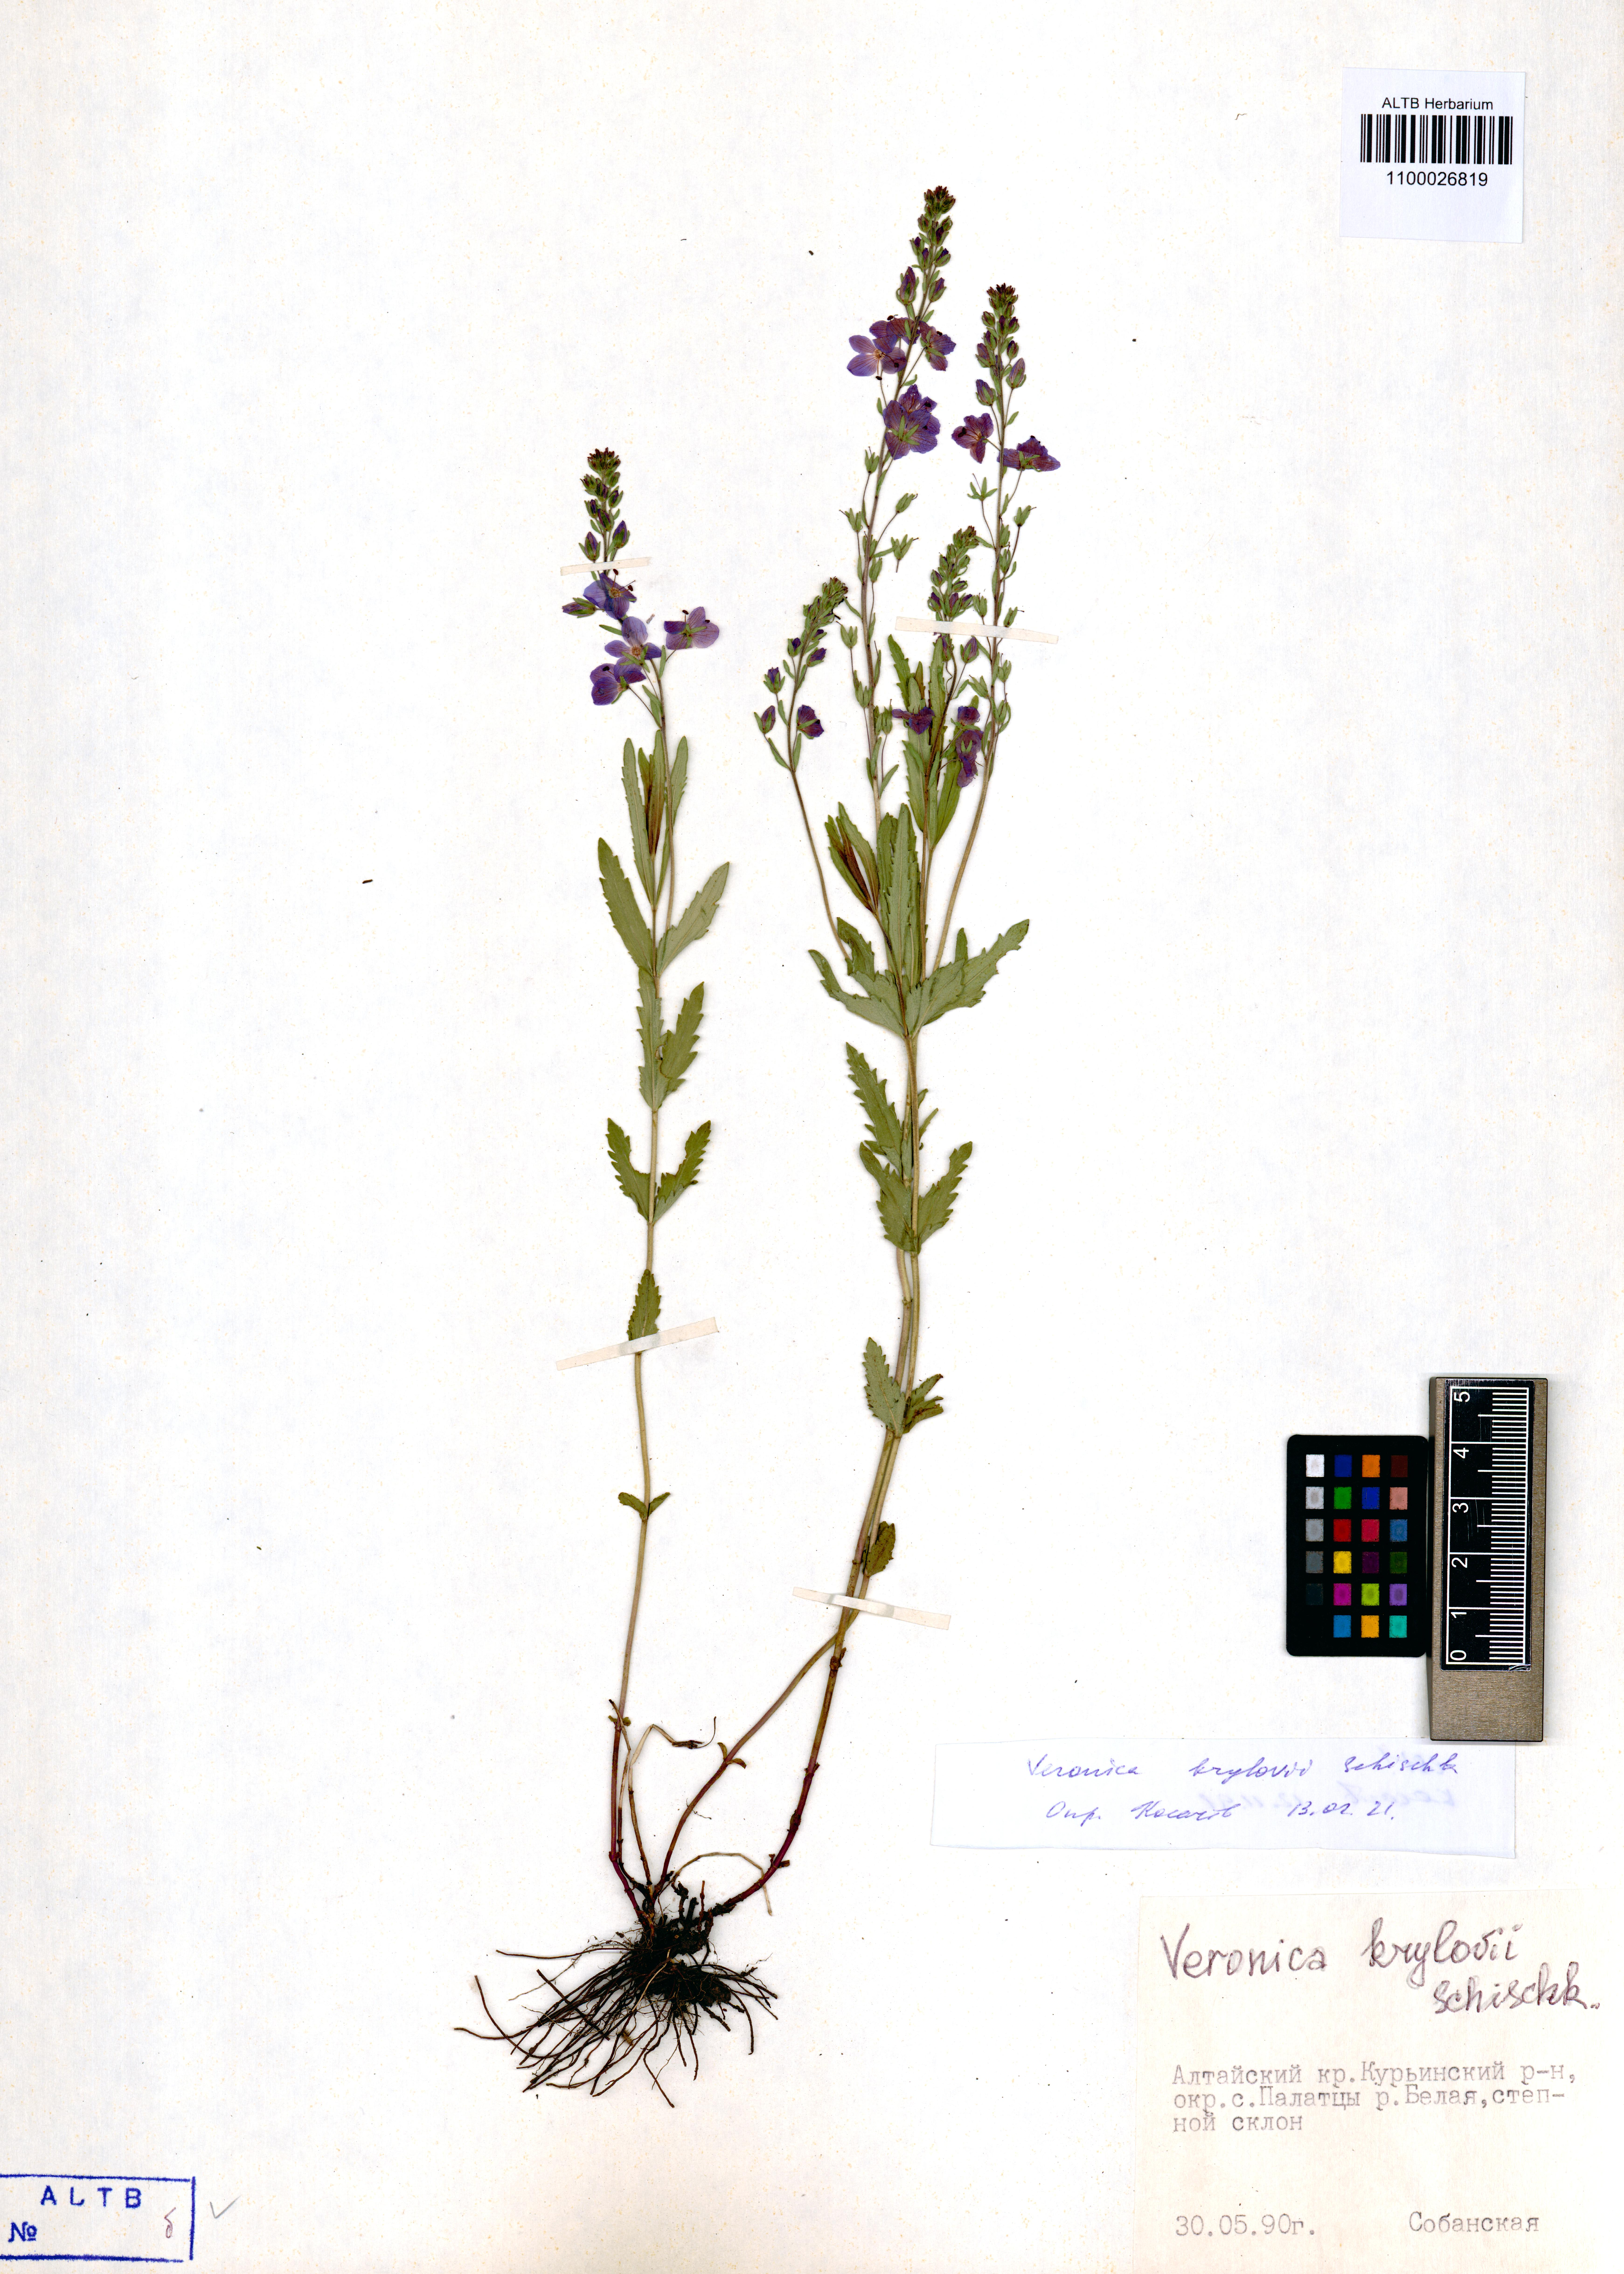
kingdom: Plantae
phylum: Tracheophyta
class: Magnoliopsida
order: Lamiales
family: Plantaginaceae
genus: Veronica
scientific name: Veronica krylovii
